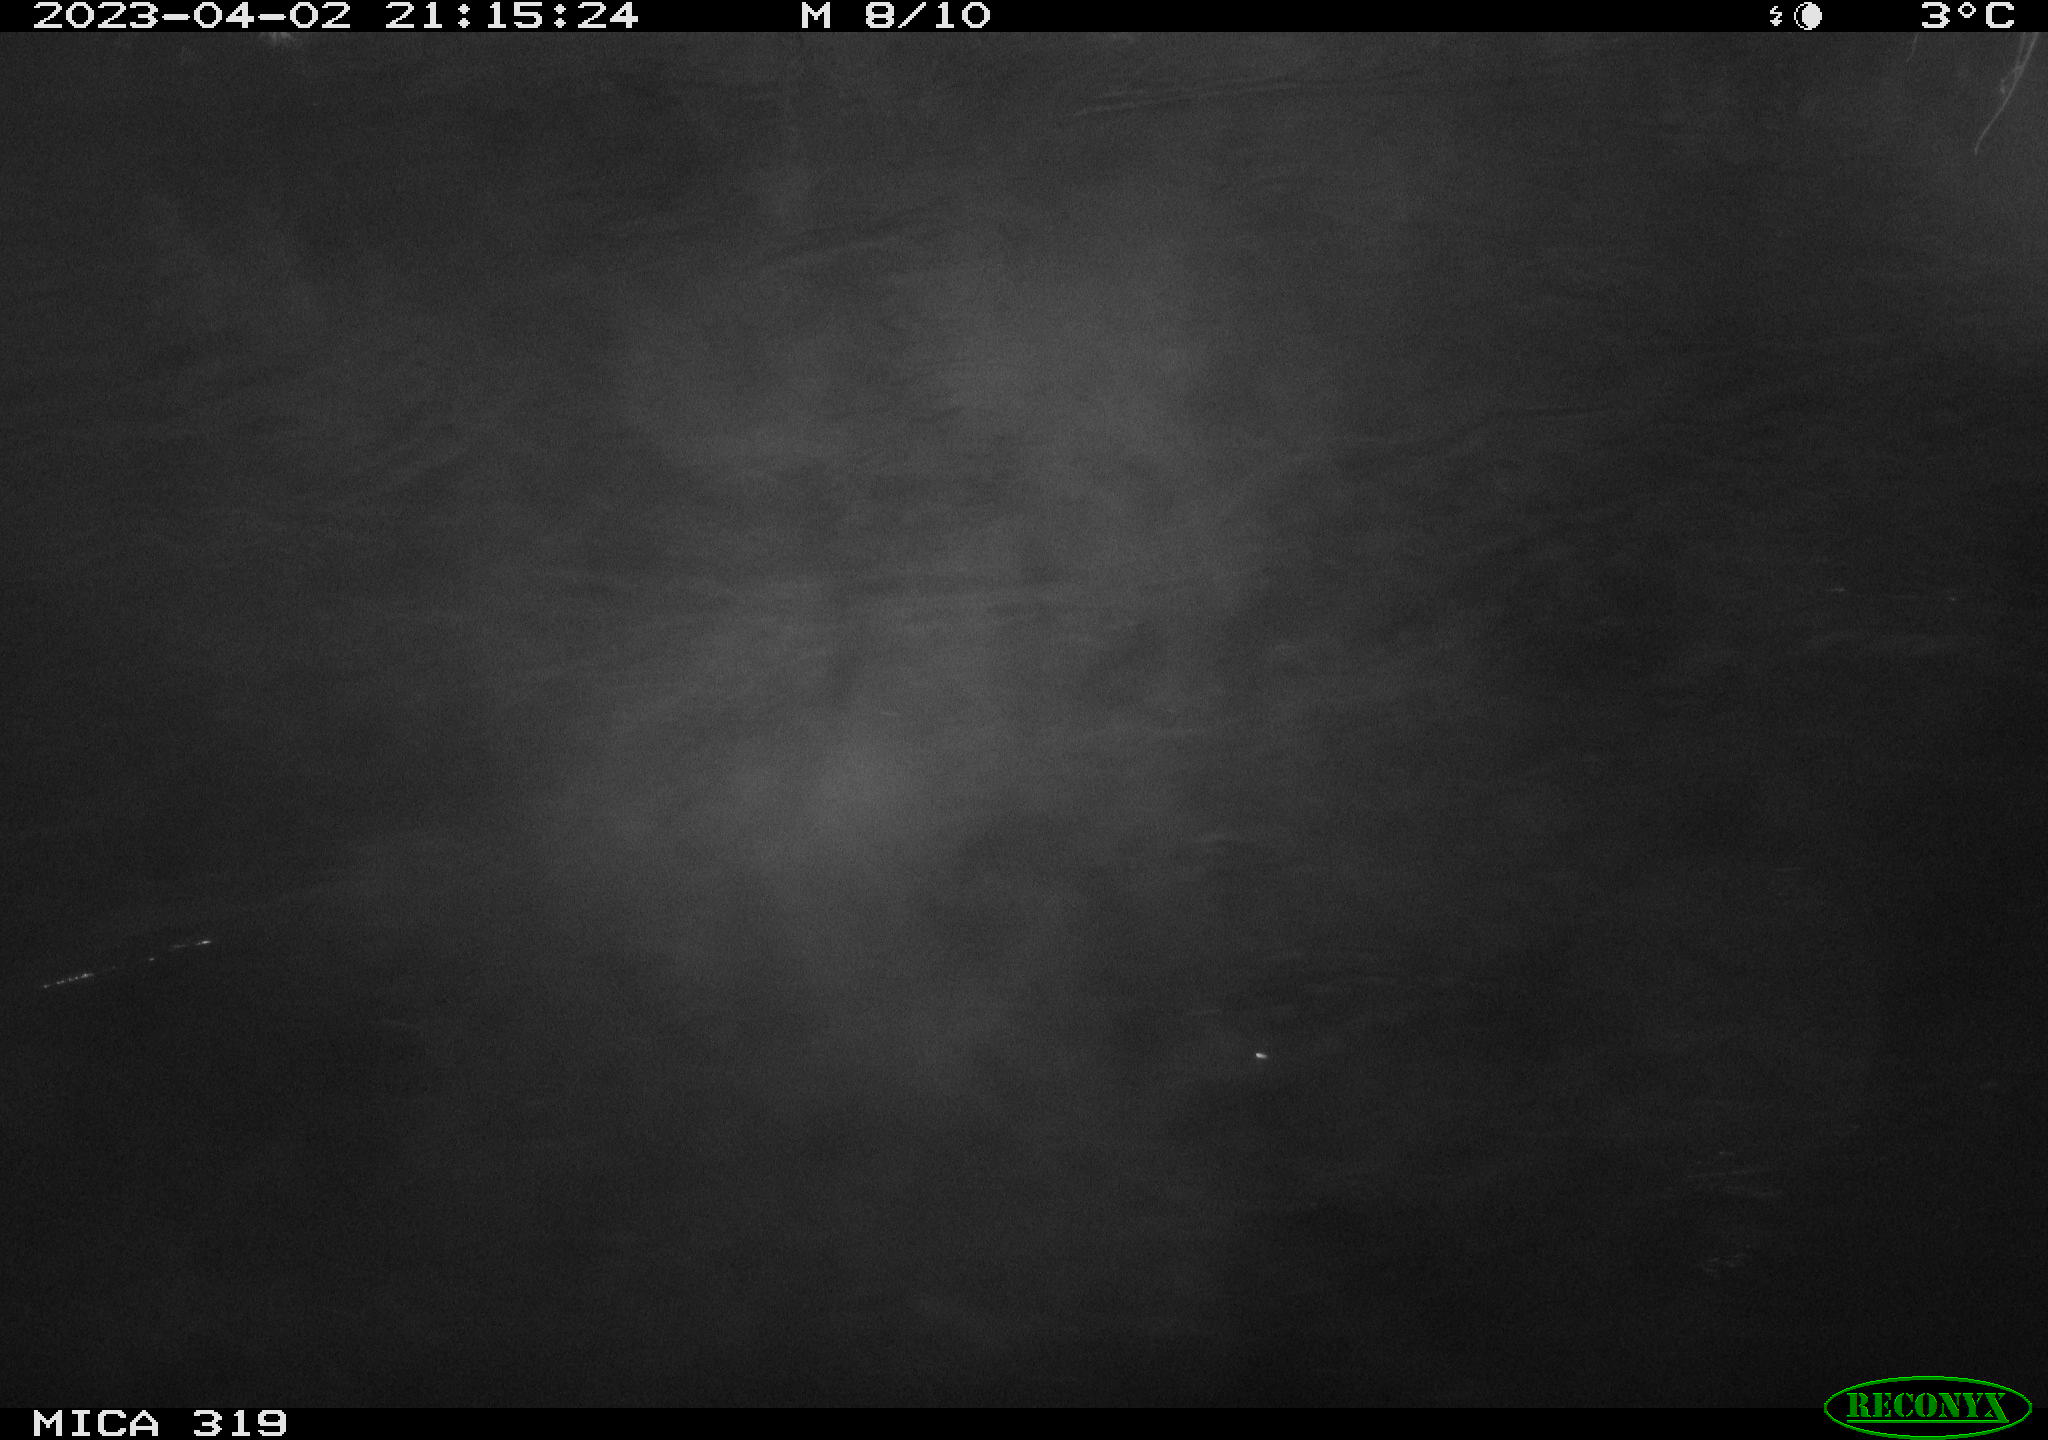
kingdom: Animalia
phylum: Chordata
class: Aves
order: Anseriformes
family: Anatidae
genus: Anas
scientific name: Anas
